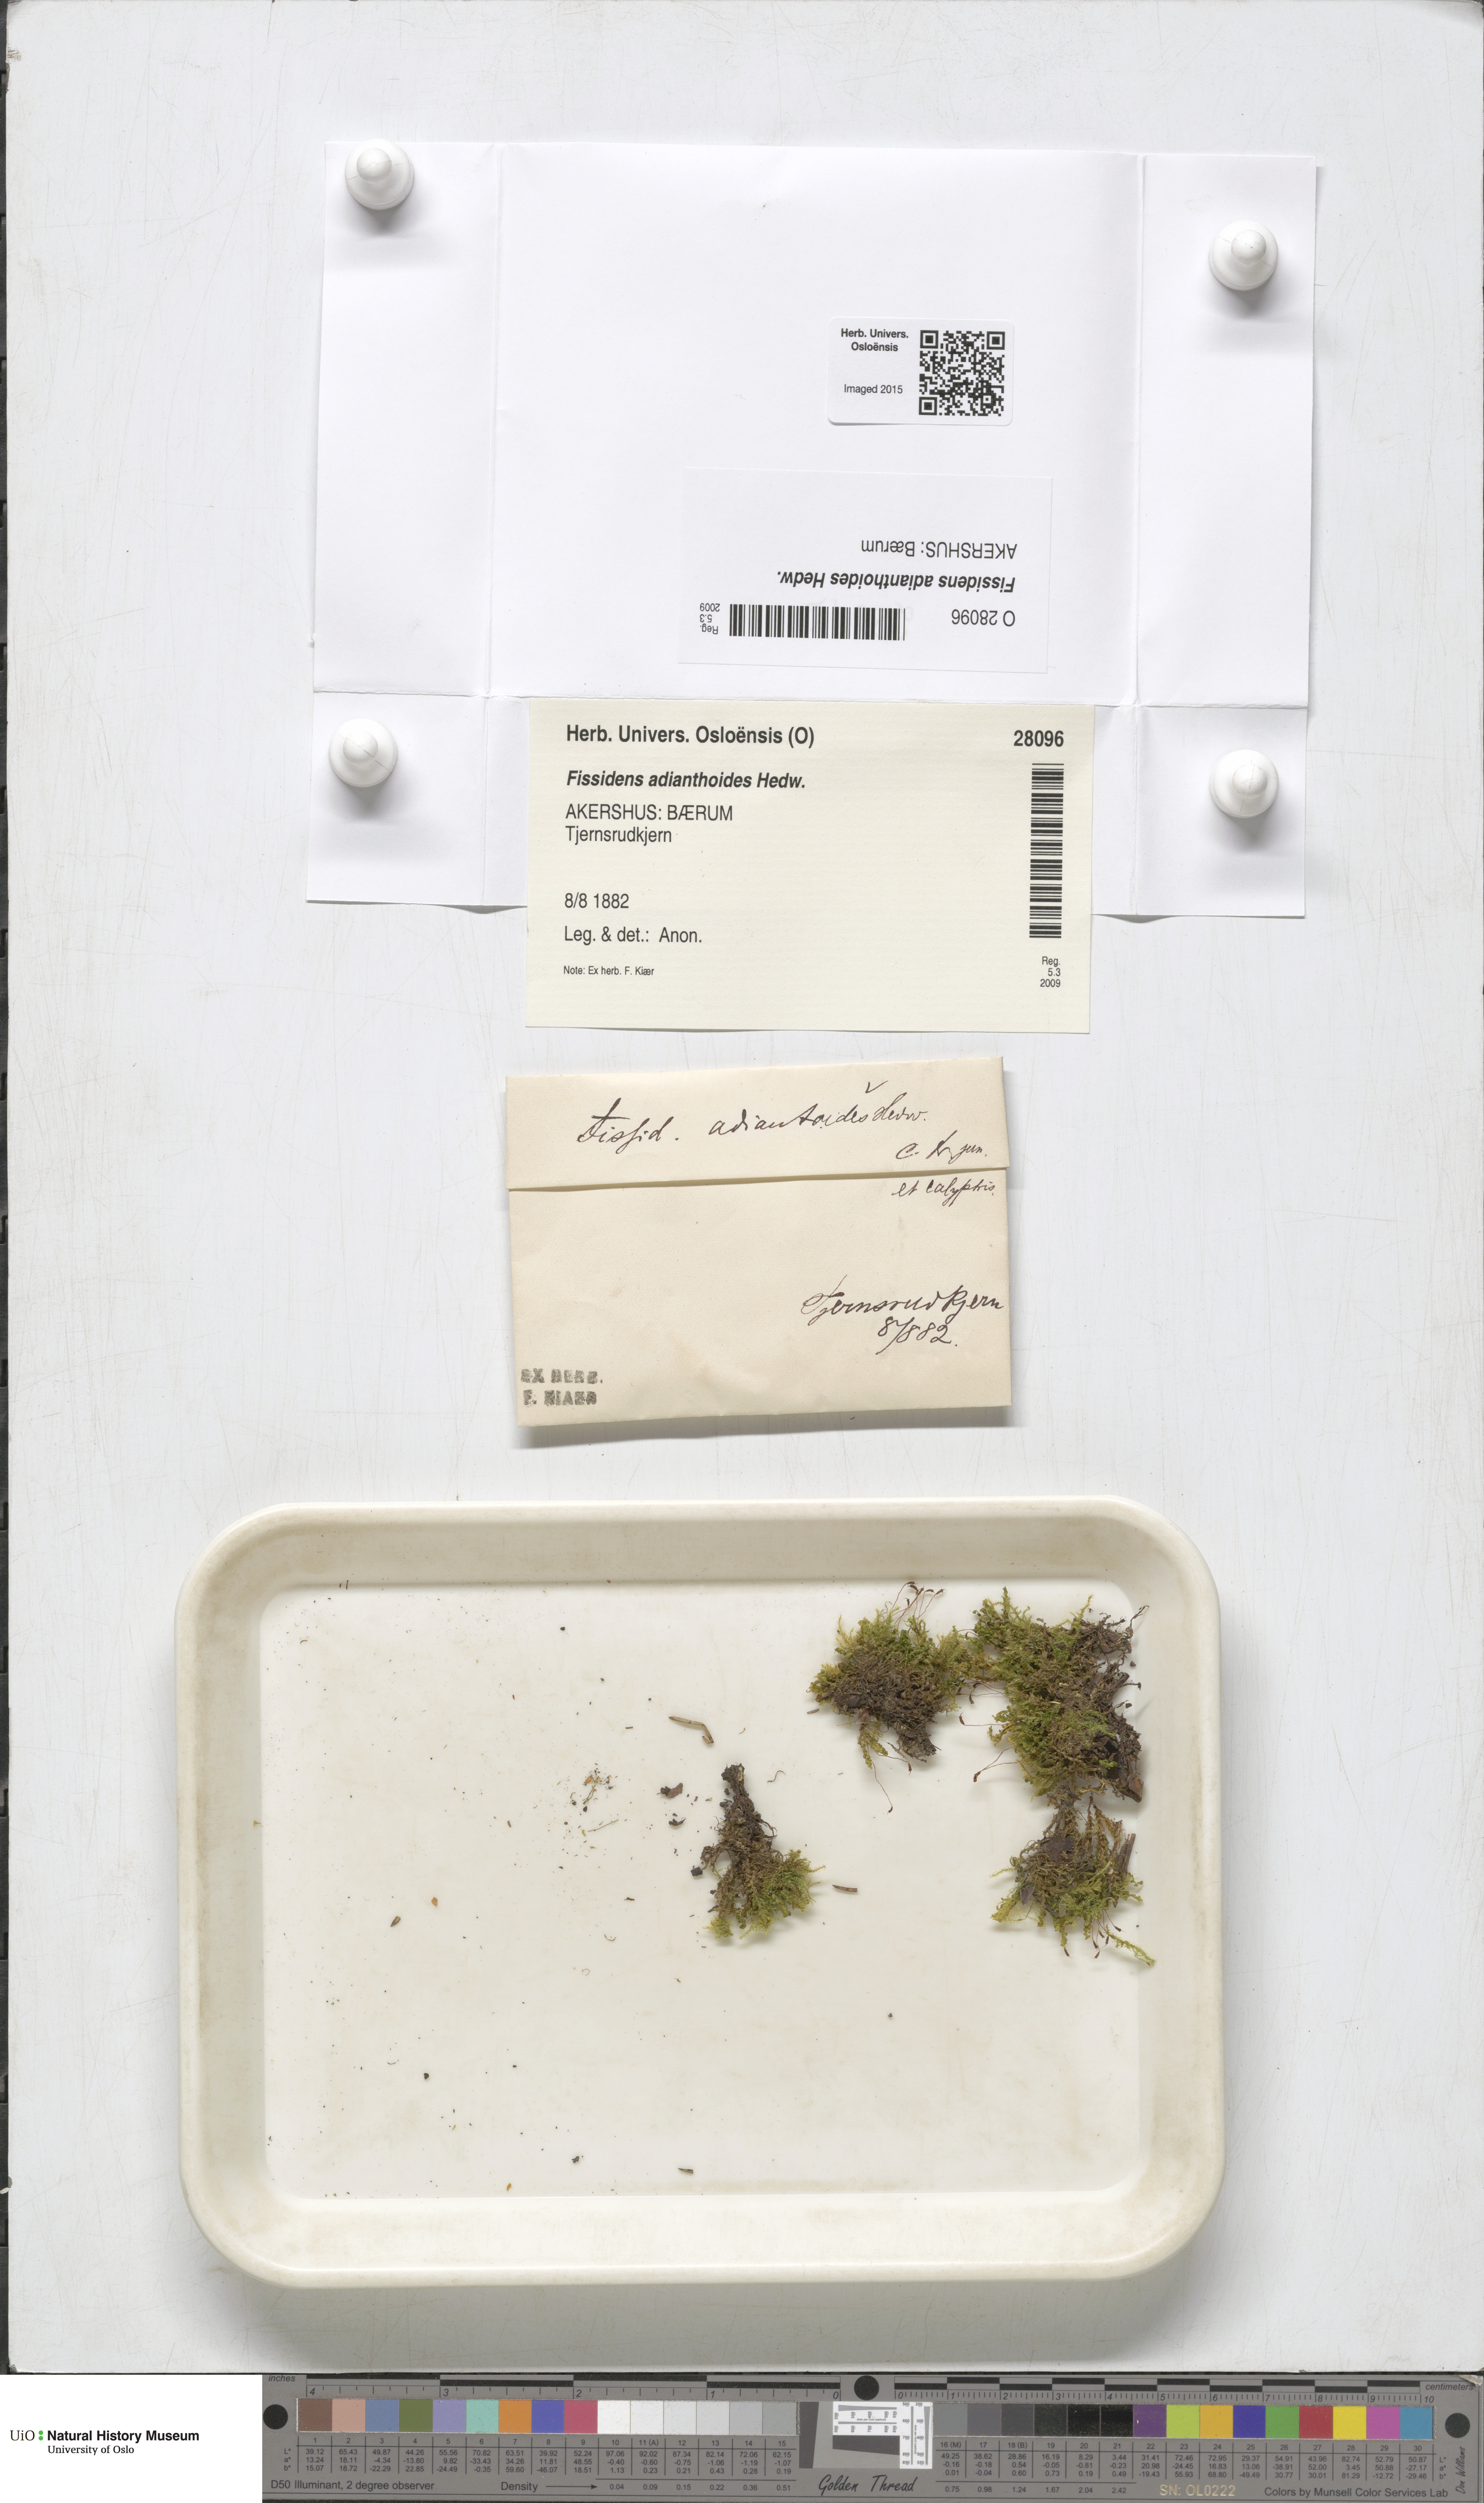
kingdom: Plantae
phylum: Bryophyta
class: Bryopsida
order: Dicranales
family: Fissidentaceae
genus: Fissidens
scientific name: Fissidens adianthoides
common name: Maidenhair pocket moss
